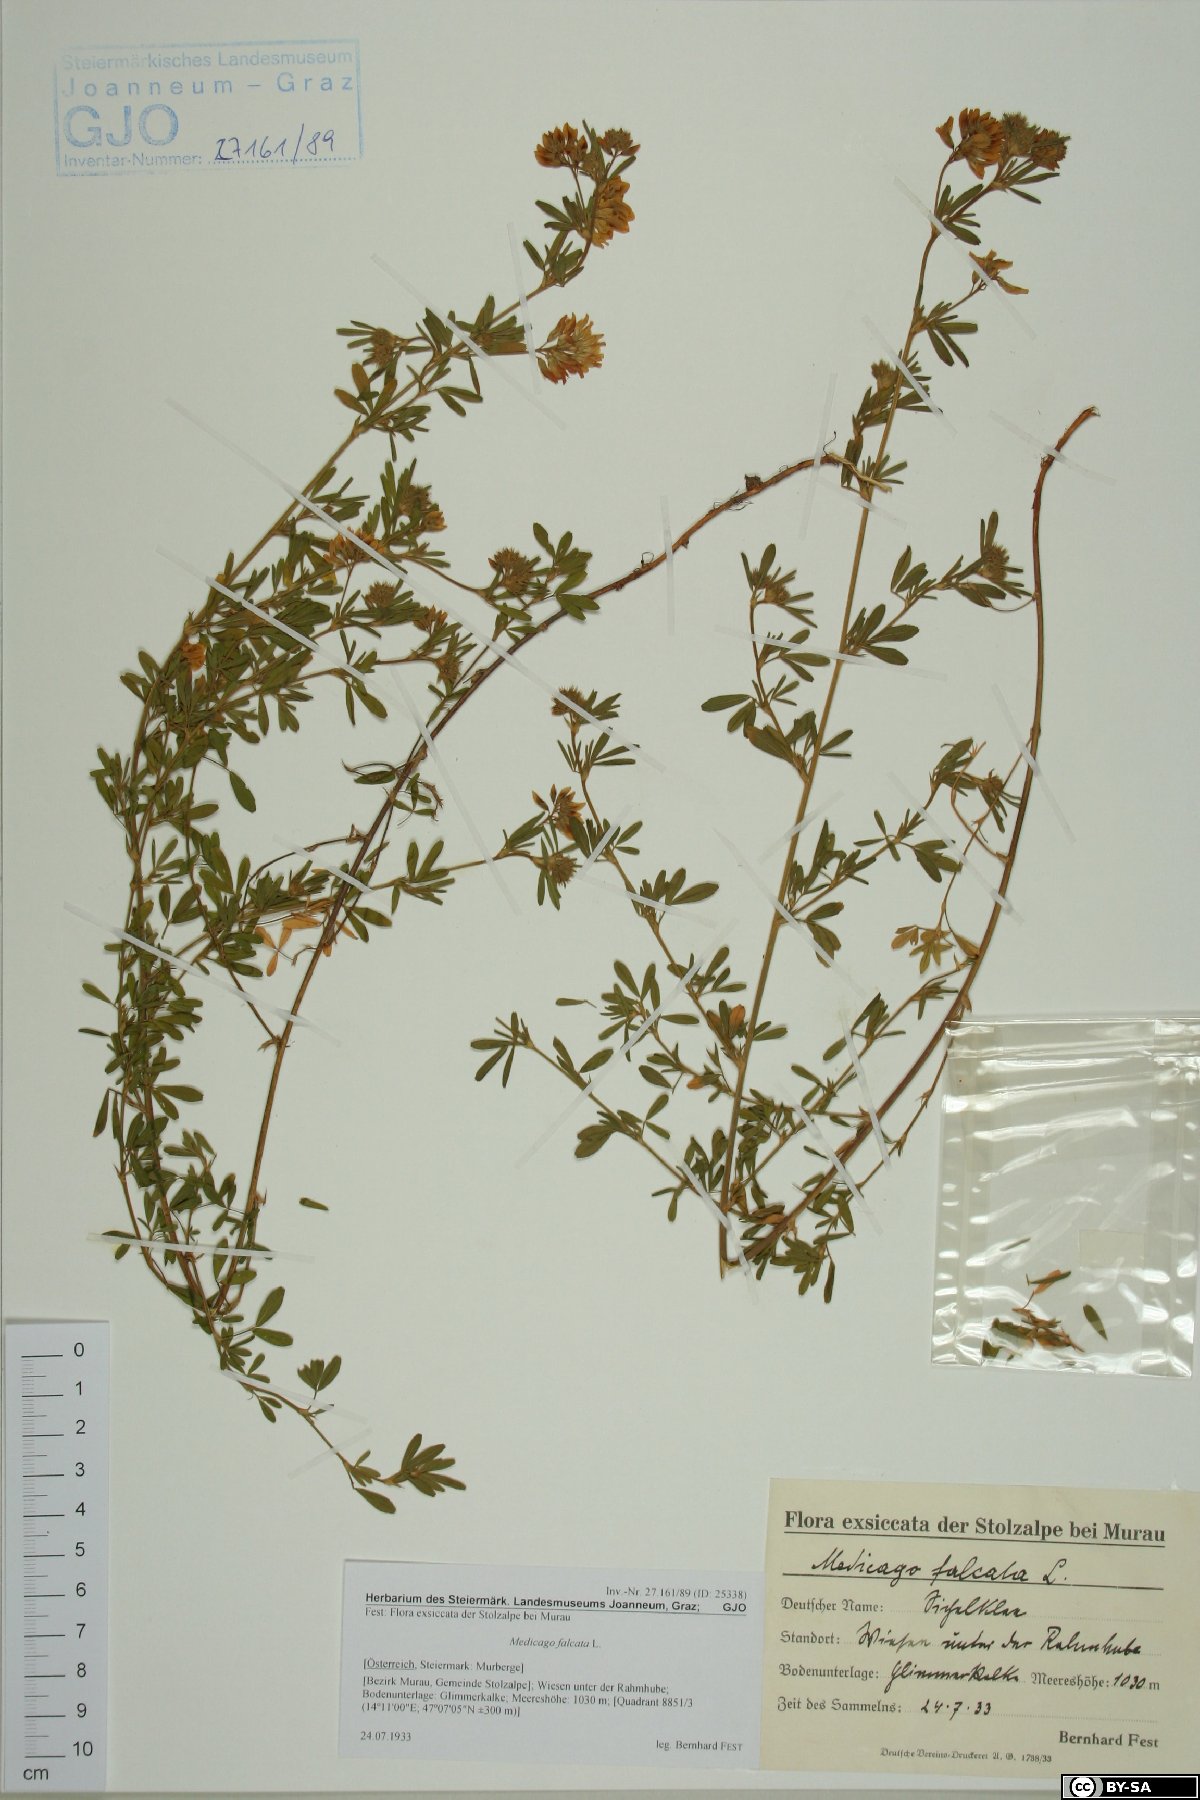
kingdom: Plantae
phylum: Tracheophyta
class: Magnoliopsida
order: Fabales
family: Fabaceae
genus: Medicago
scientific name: Medicago falcata
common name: Sickle medick
